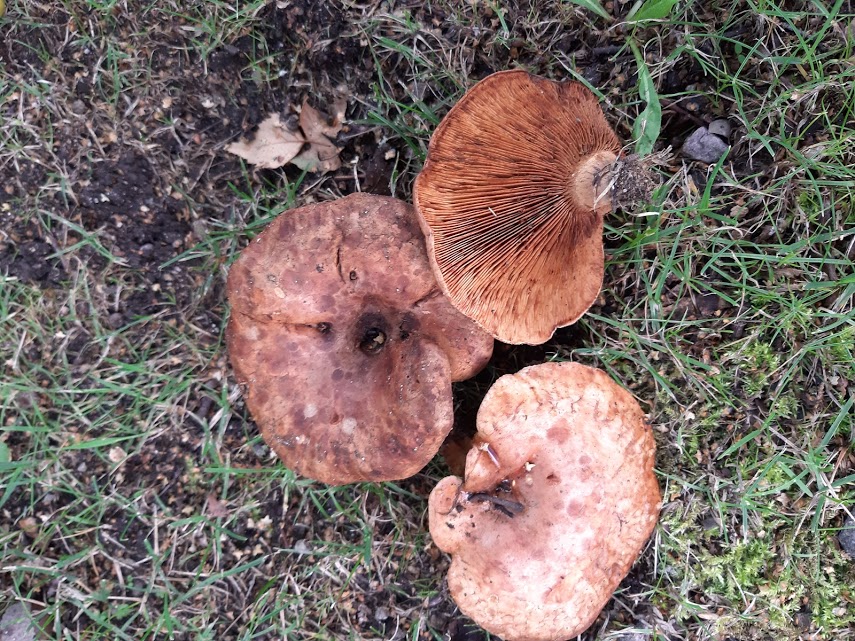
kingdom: Fungi
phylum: Basidiomycota
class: Agaricomycetes
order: Boletales
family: Paxillaceae
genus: Paxillus
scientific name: Paxillus
